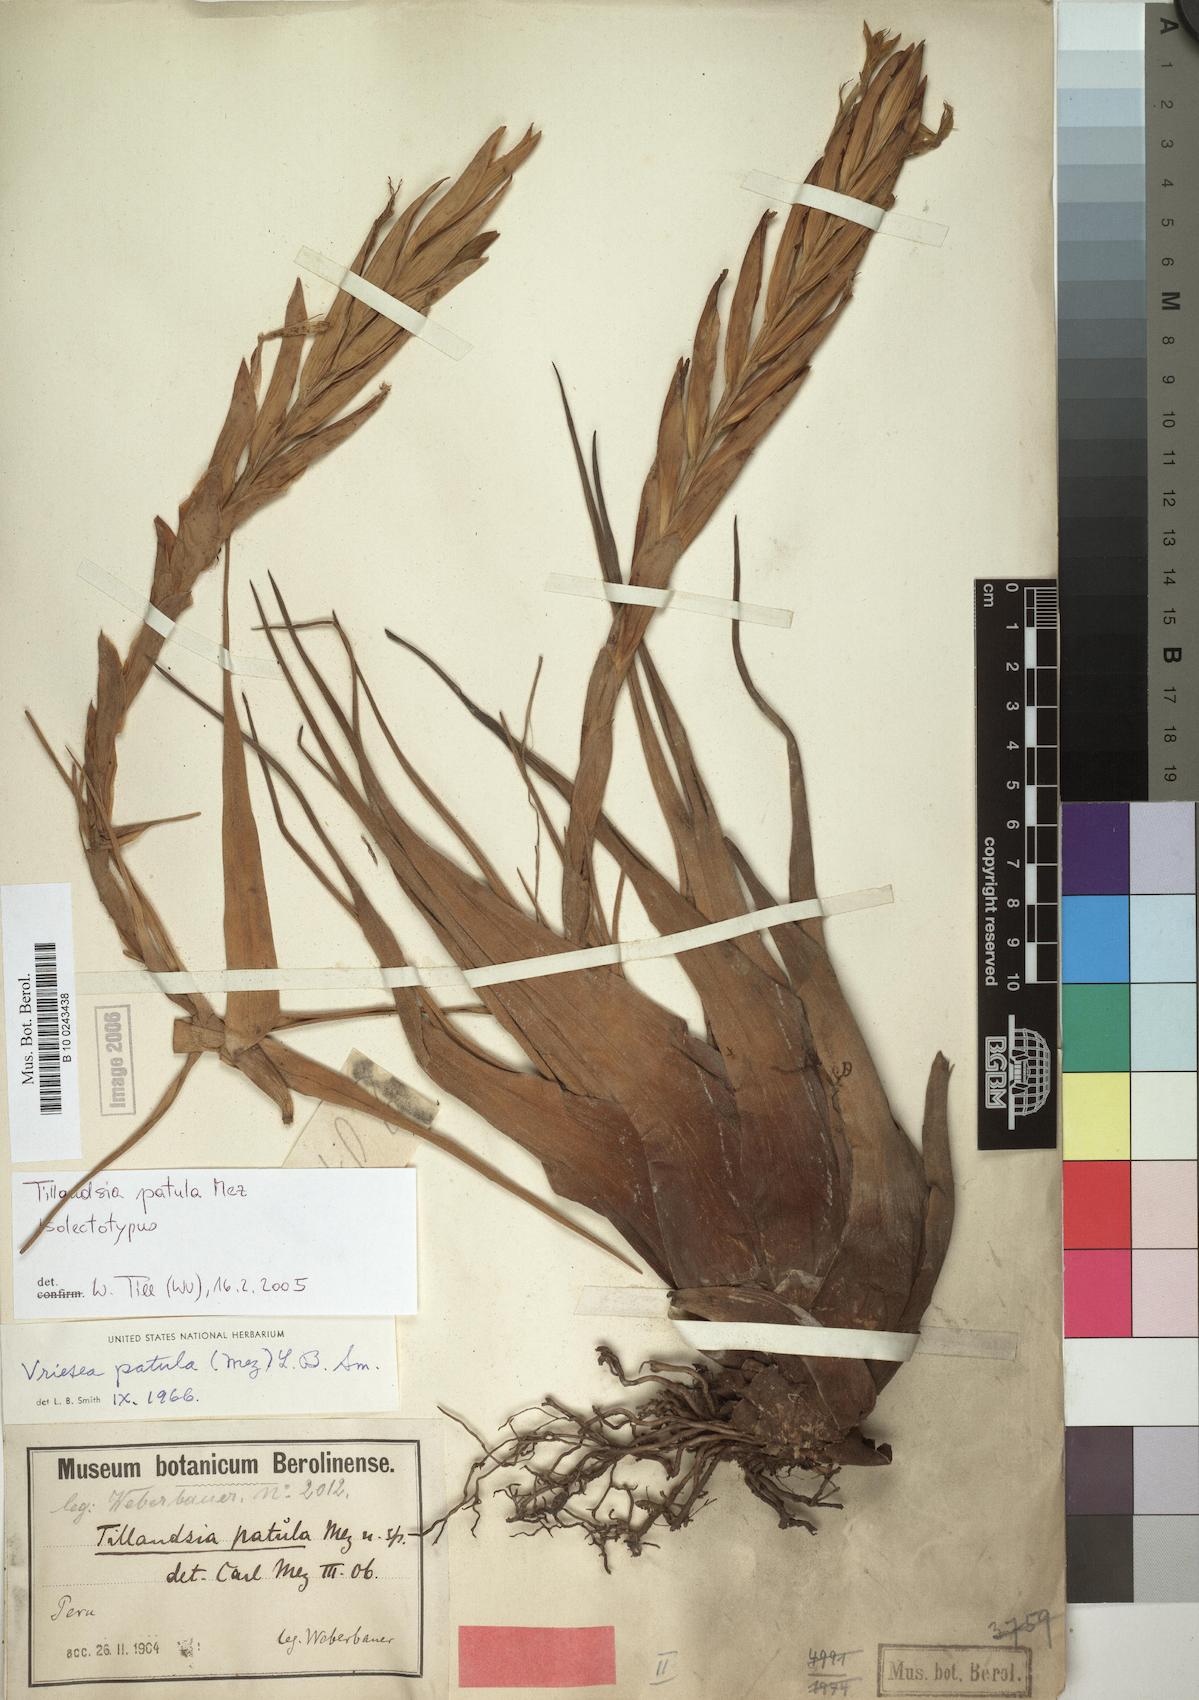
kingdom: Plantae
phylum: Tracheophyta
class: Liliopsida
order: Poales
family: Bromeliaceae
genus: Vriesea
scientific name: Vriesea patula
